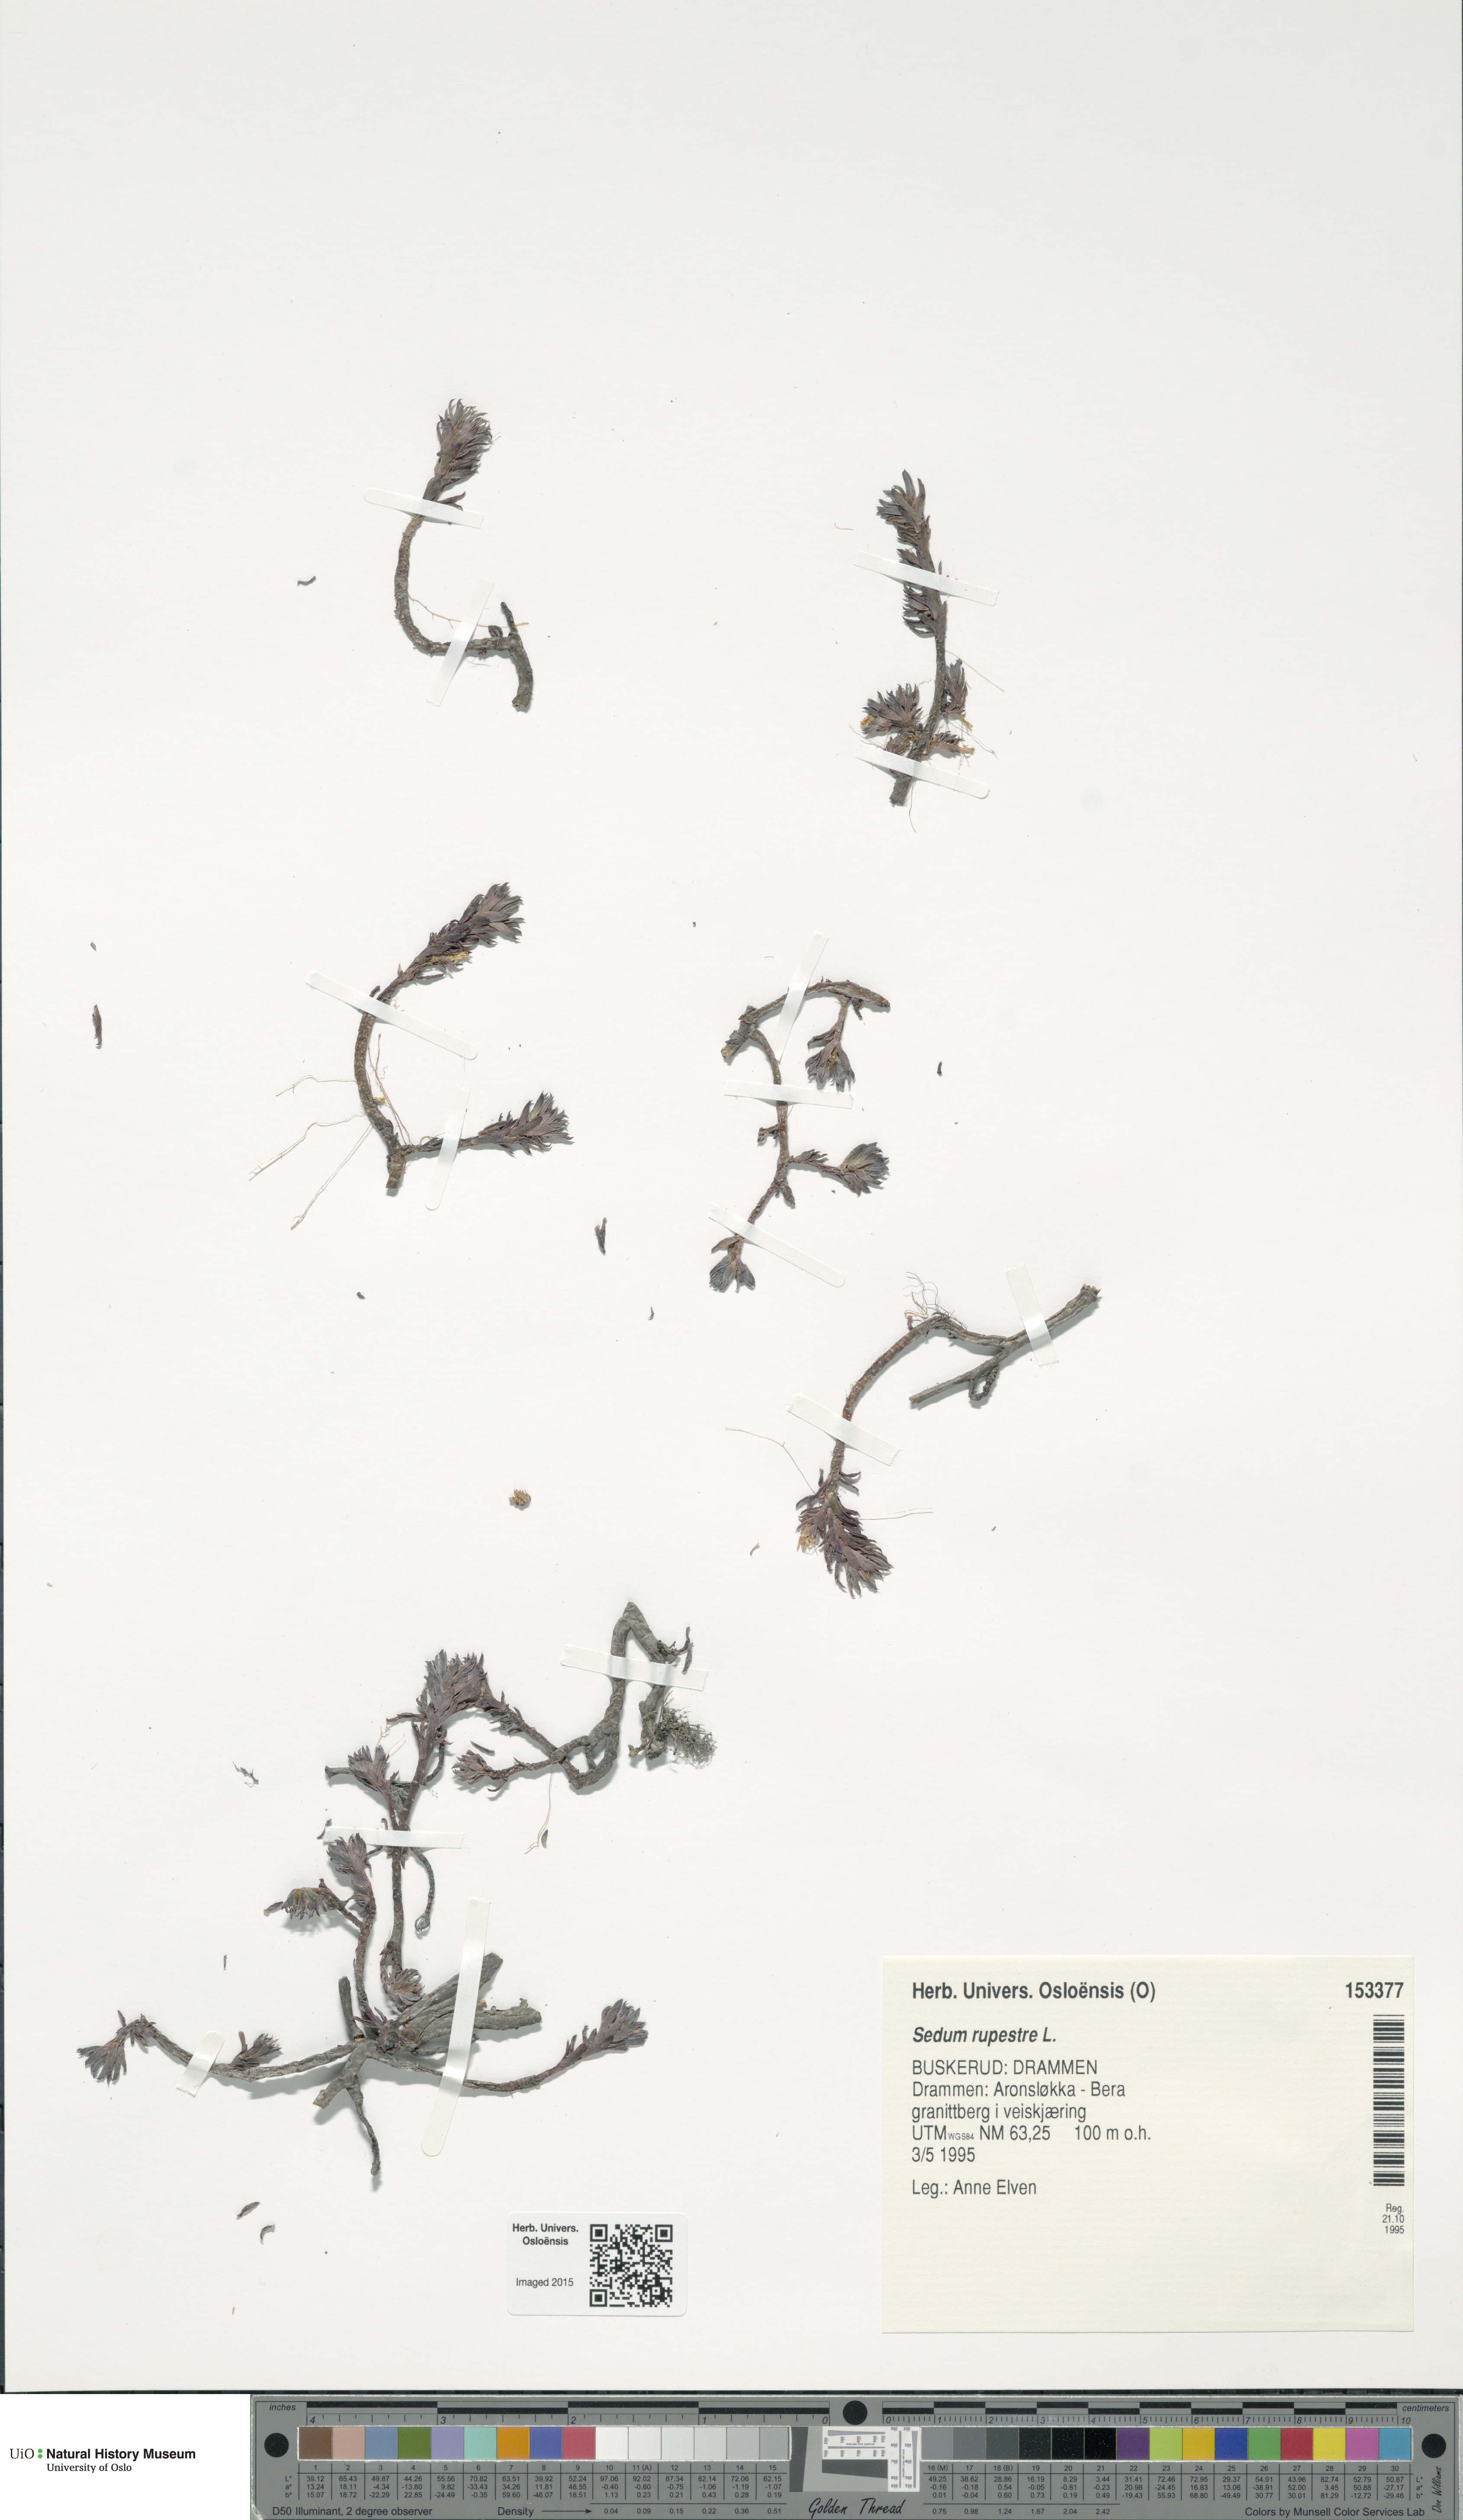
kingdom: Plantae
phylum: Tracheophyta
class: Magnoliopsida
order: Saxifragales
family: Crassulaceae
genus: Petrosedum
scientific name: Petrosedum rupestre
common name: Jenny's stonecrop
